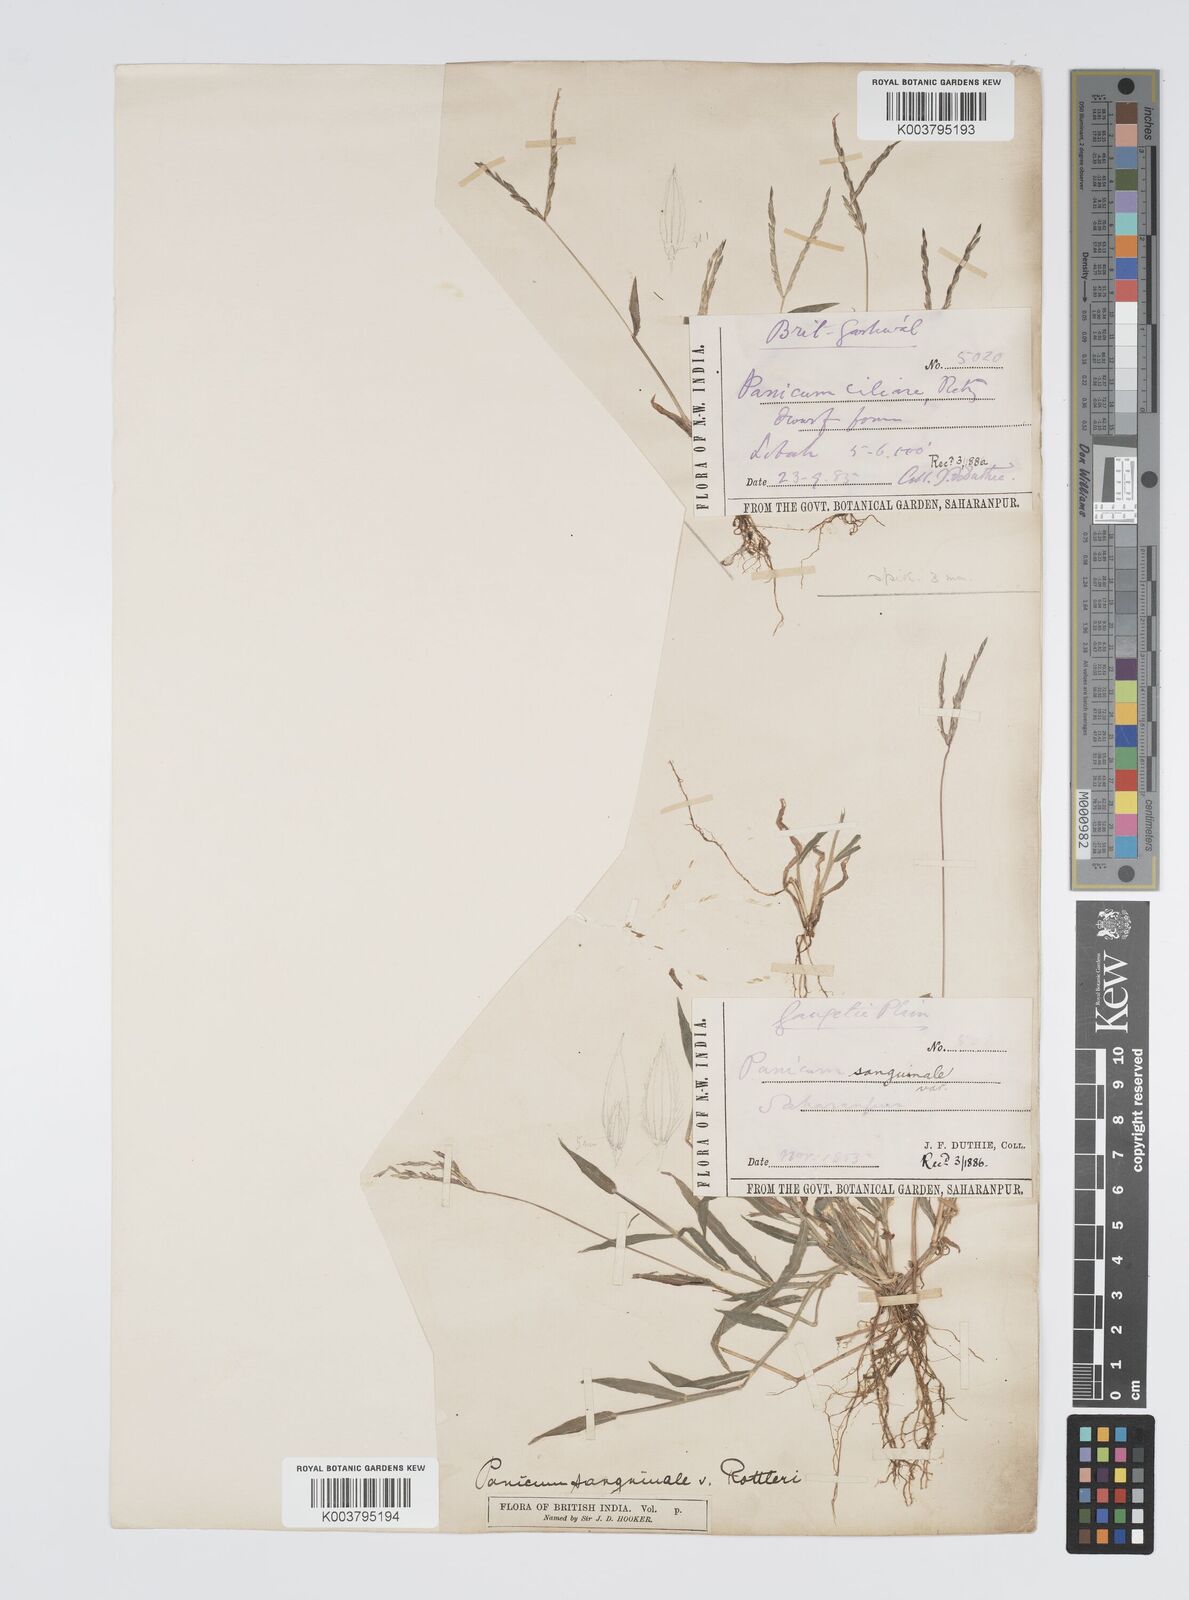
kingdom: Plantae
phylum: Tracheophyta
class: Liliopsida
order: Poales
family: Poaceae
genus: Digitaria
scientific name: Digitaria ciliaris
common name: Tropical finger-grass
